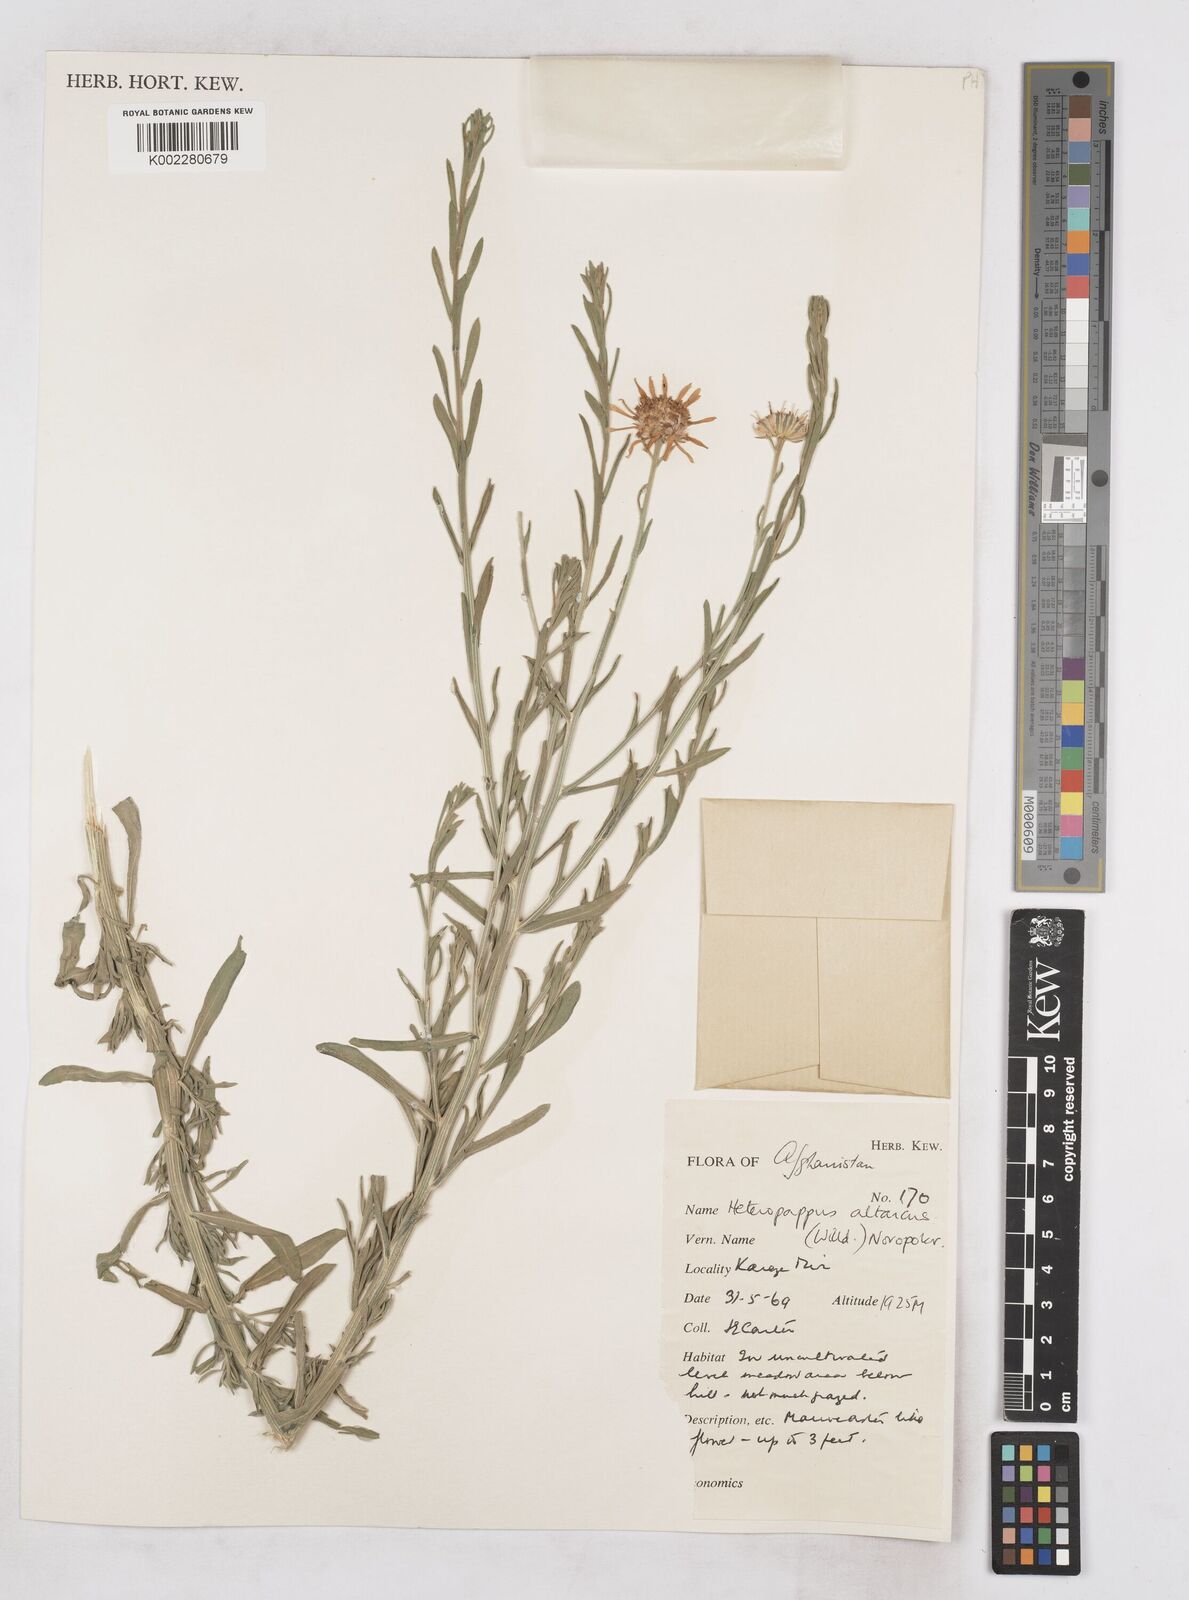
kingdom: Plantae
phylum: Tracheophyta
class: Magnoliopsida
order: Asterales
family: Asteraceae
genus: Heteropappus
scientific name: Heteropappus altaicus
